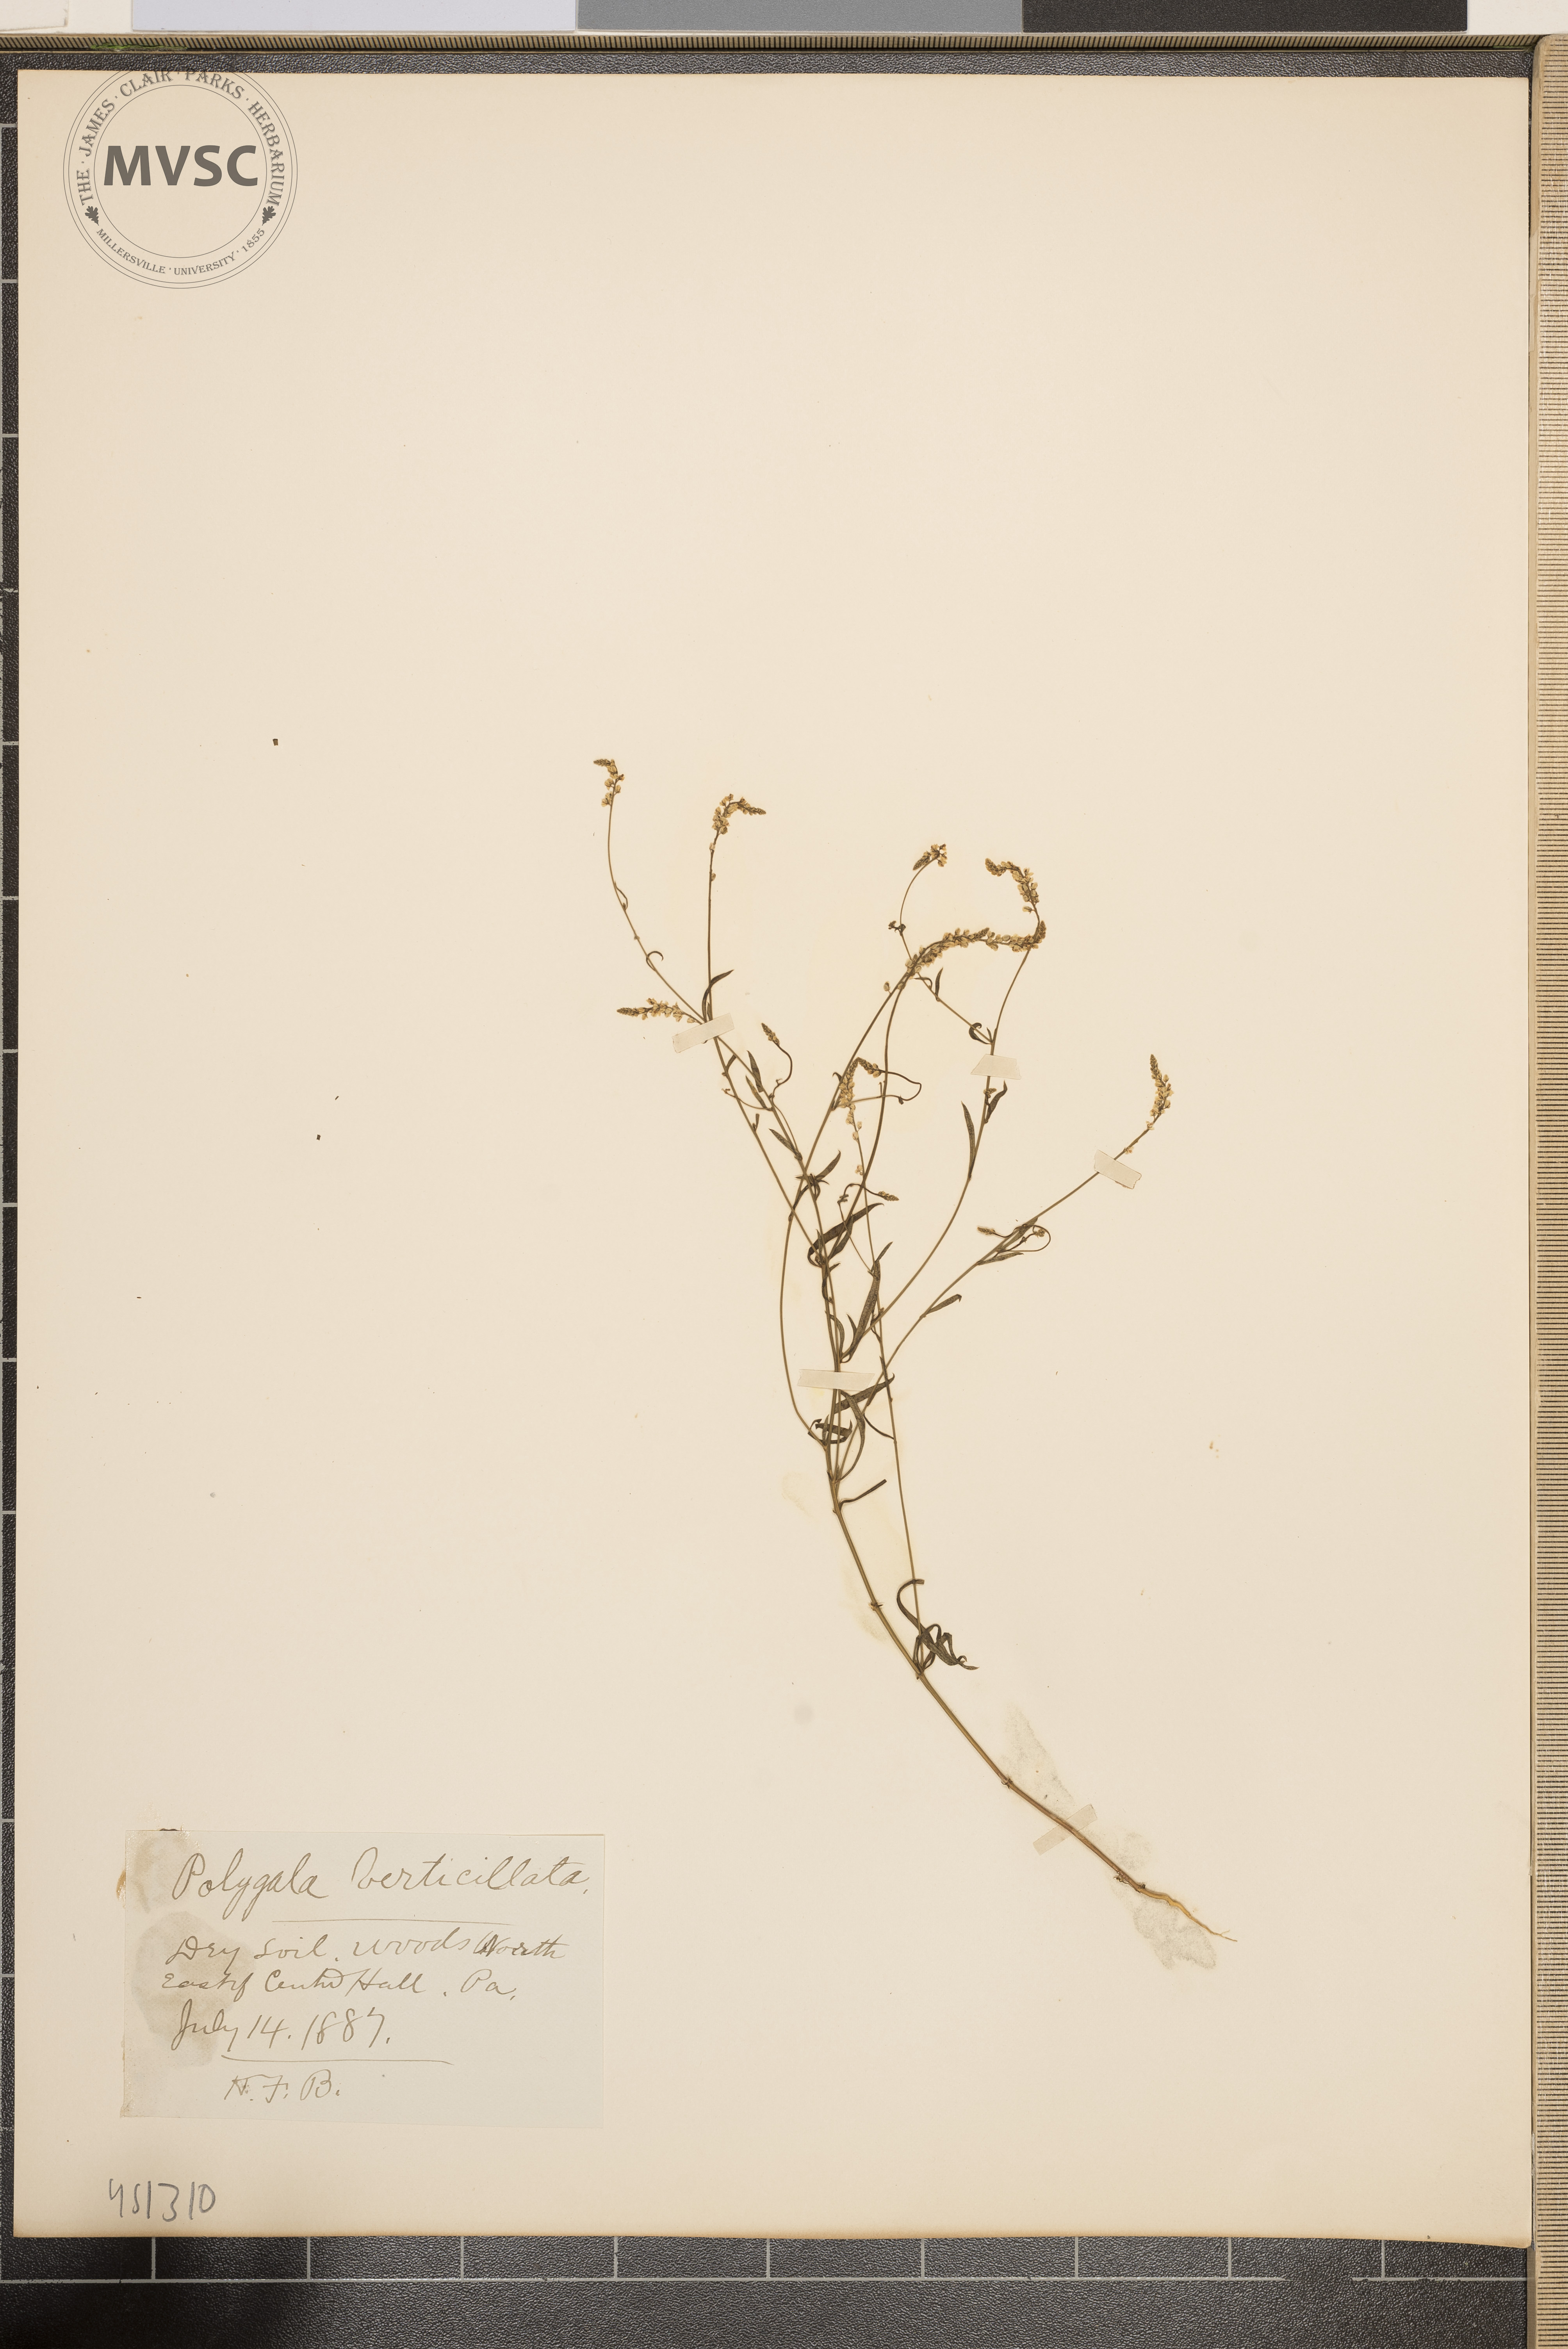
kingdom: Plantae
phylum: Tracheophyta
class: Magnoliopsida
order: Fabales
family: Polygalaceae
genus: Polygala
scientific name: Polygala verticillata
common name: Whorl milkwort
